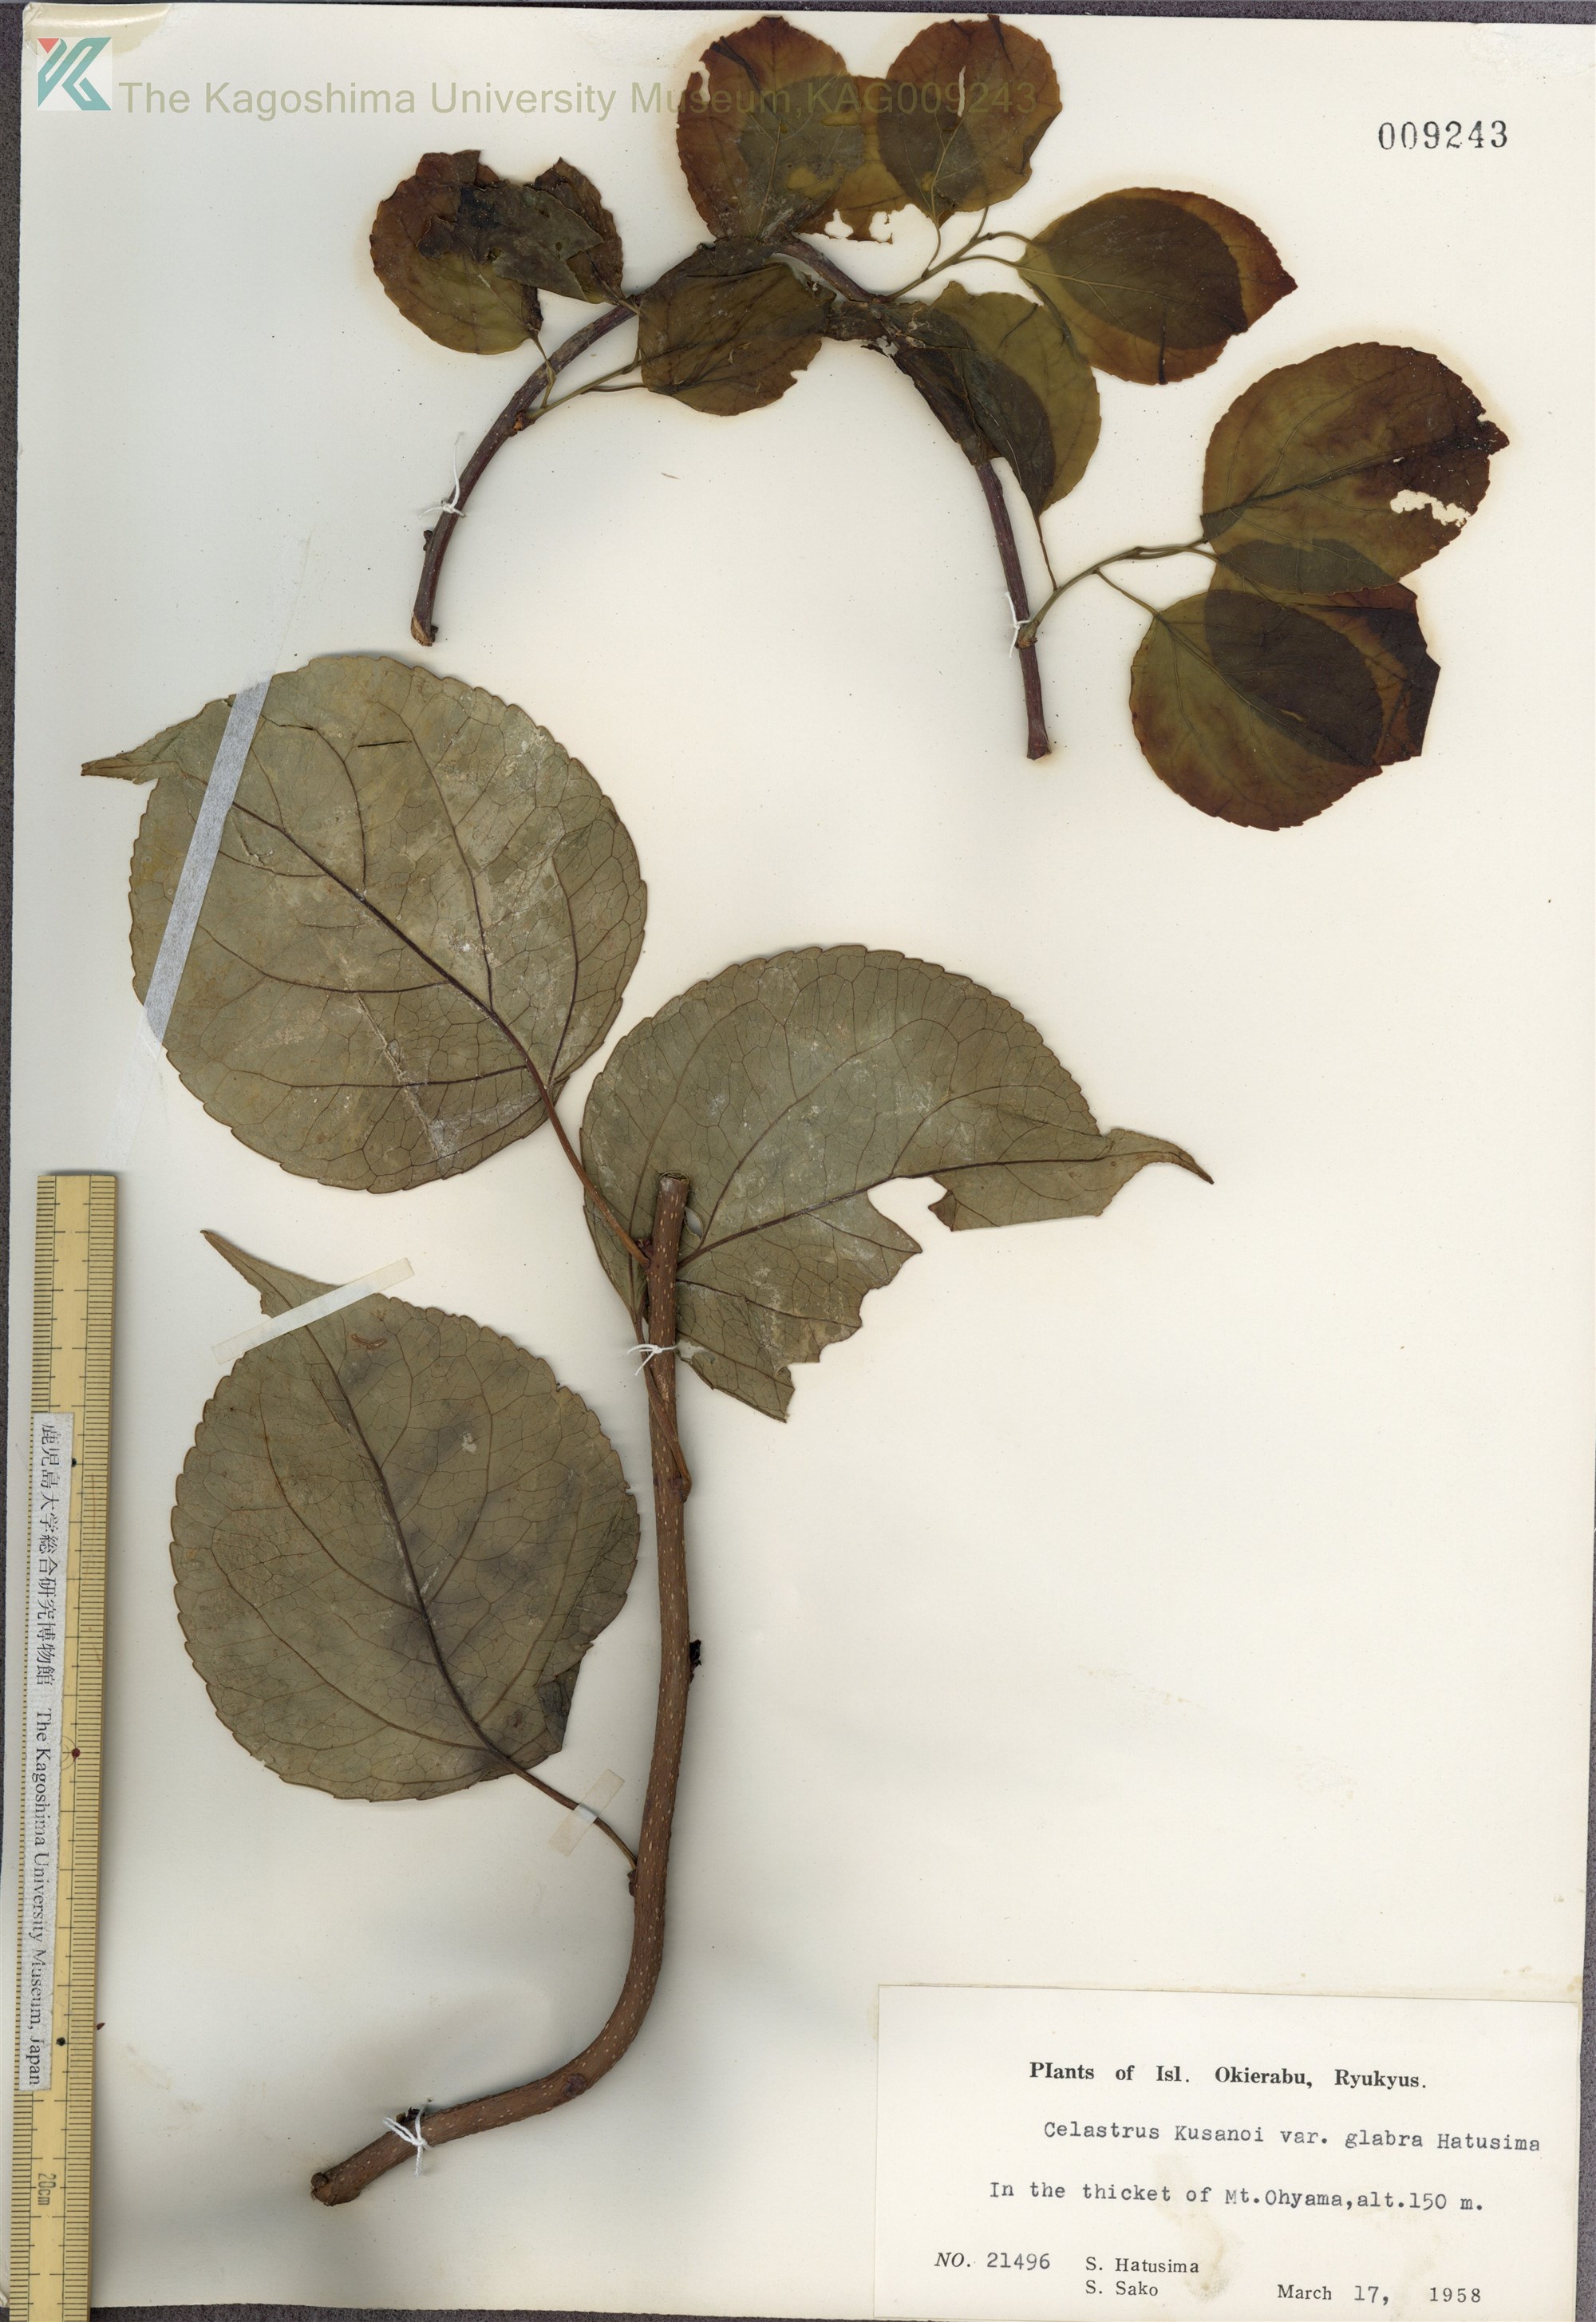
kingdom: Plantae
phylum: Tracheophyta
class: Magnoliopsida
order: Celastrales
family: Celastraceae
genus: Celastrus
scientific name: Celastrus hypoleucus
